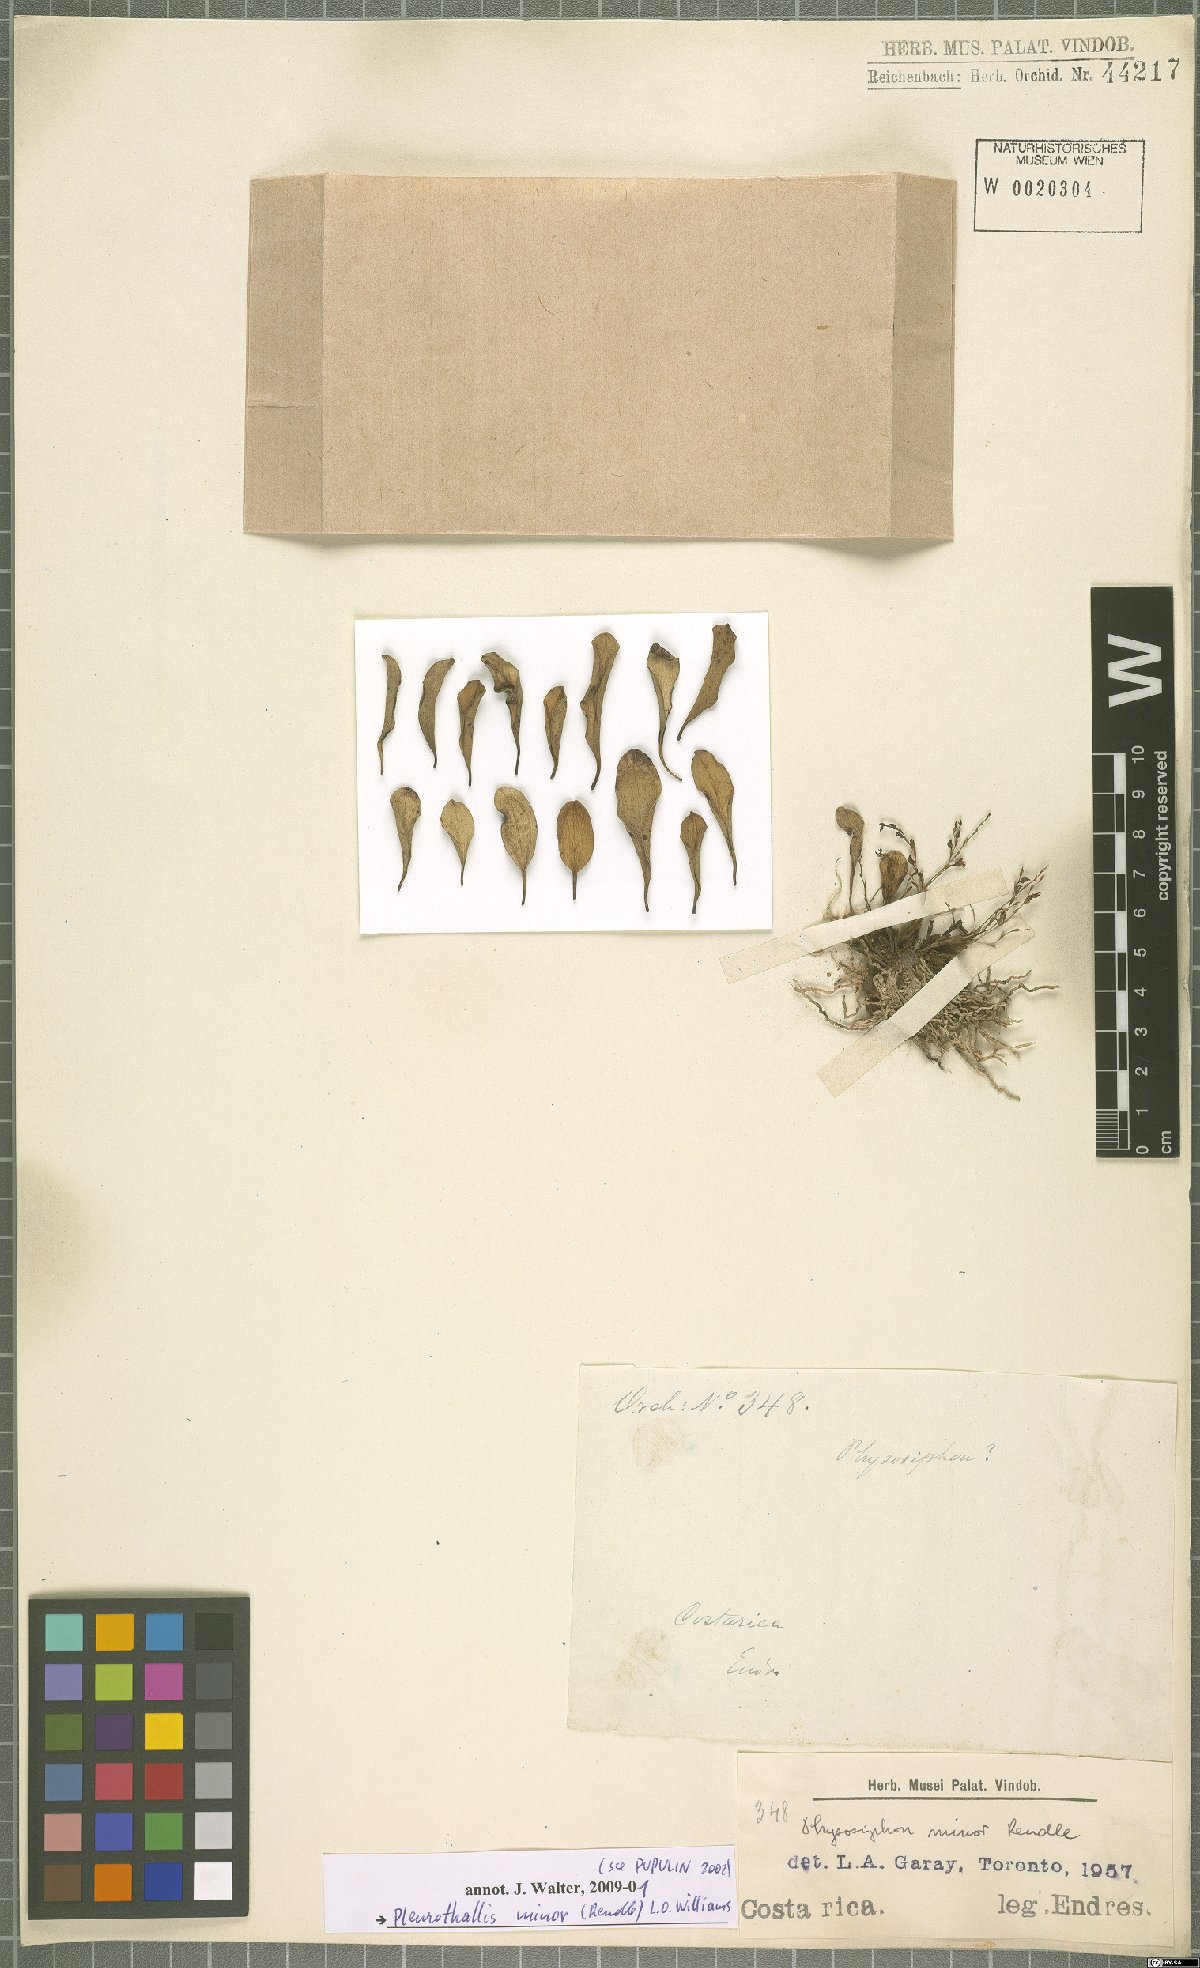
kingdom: Plantae
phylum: Tracheophyta
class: Liliopsida
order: Asparagales
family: Orchidaceae
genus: Stelis
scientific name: Stelis punctulata
